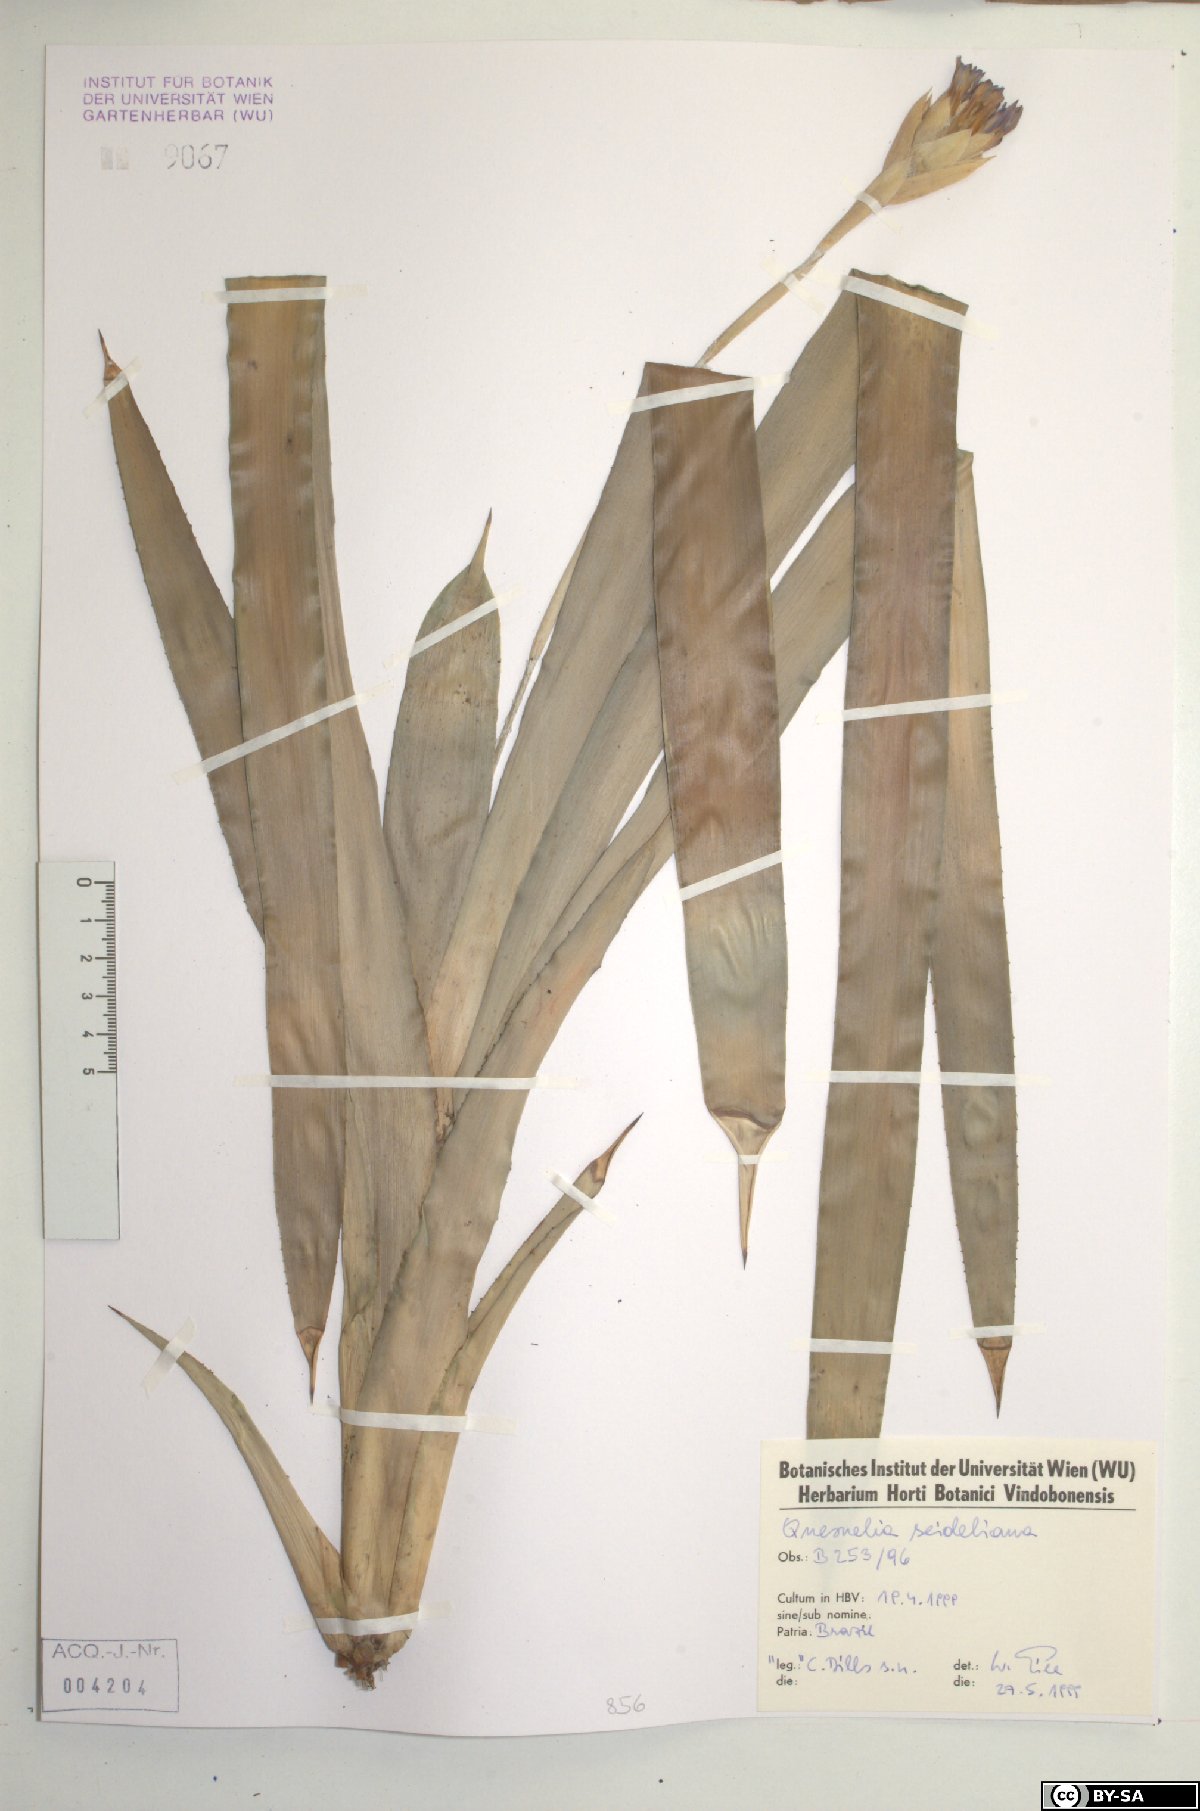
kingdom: Plantae
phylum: Tracheophyta
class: Liliopsida
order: Poales
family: Bromeliaceae
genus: Quesnelia
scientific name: Quesnelia seideliana
